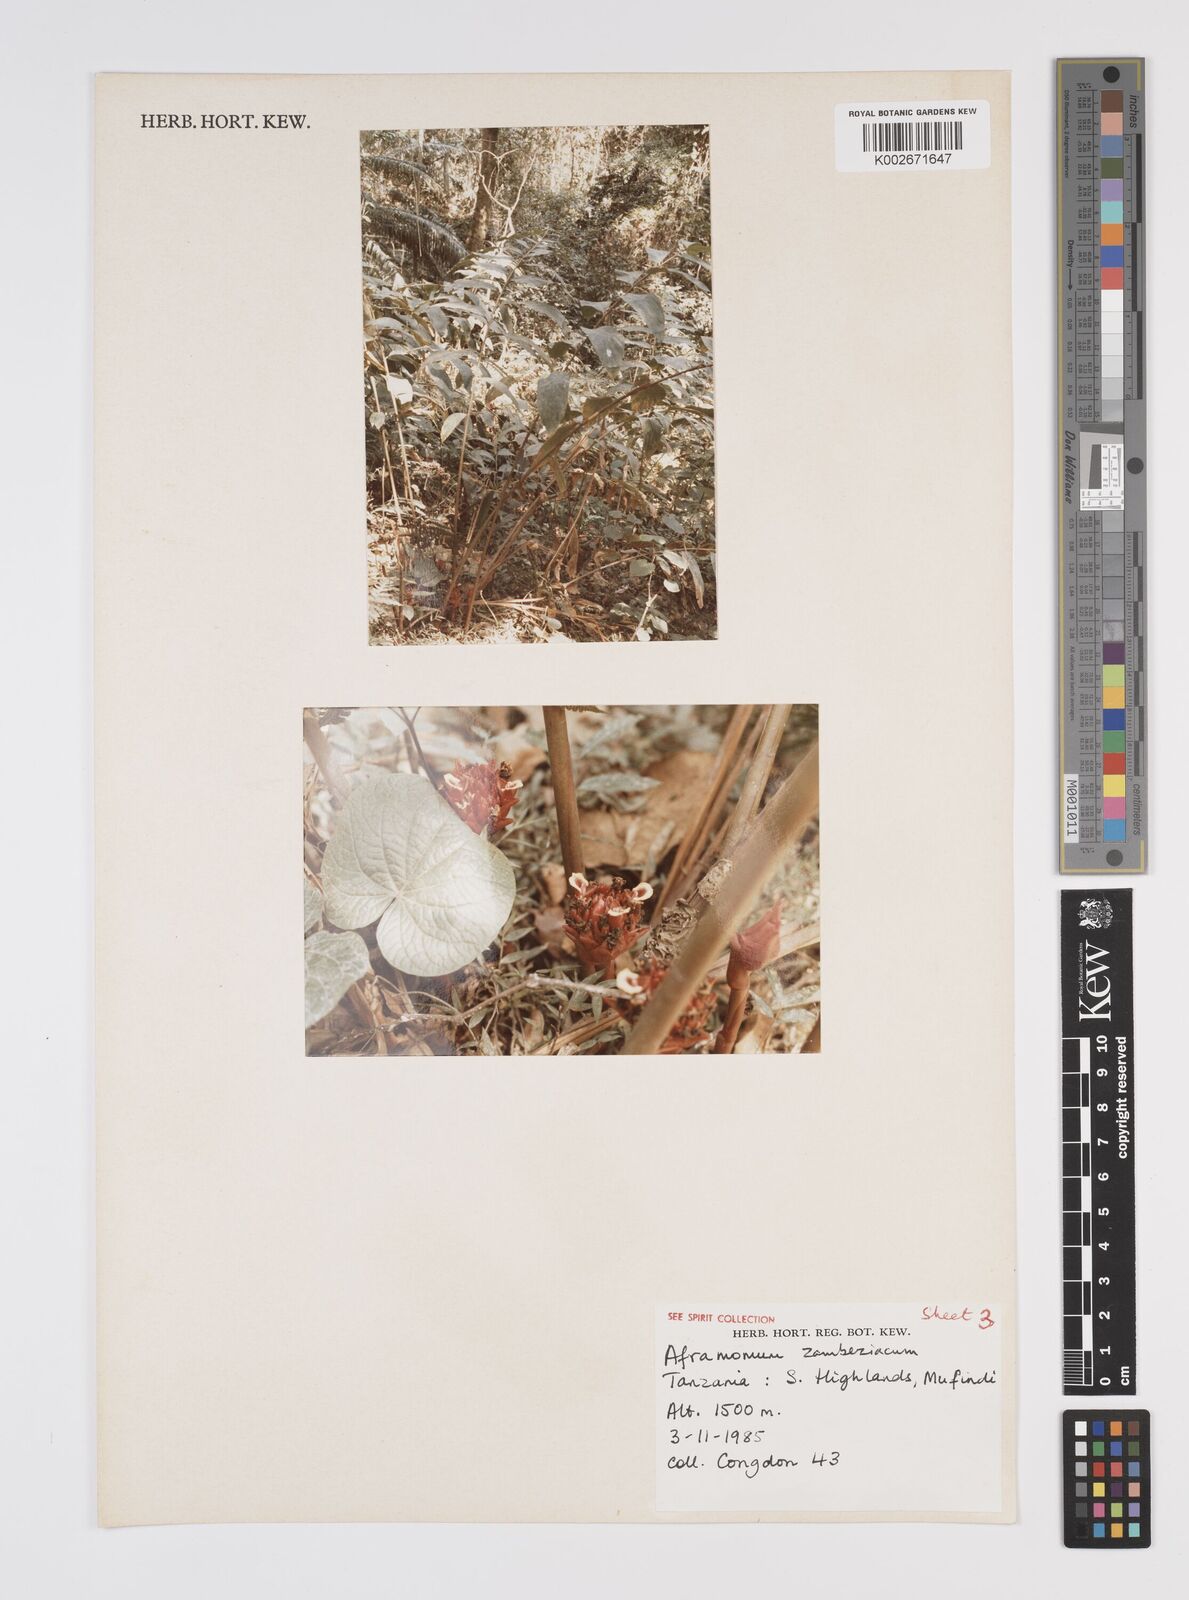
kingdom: Plantae
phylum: Tracheophyta
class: Liliopsida
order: Zingiberales
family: Zingiberaceae
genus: Aframomum
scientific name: Aframomum zambesiacum
